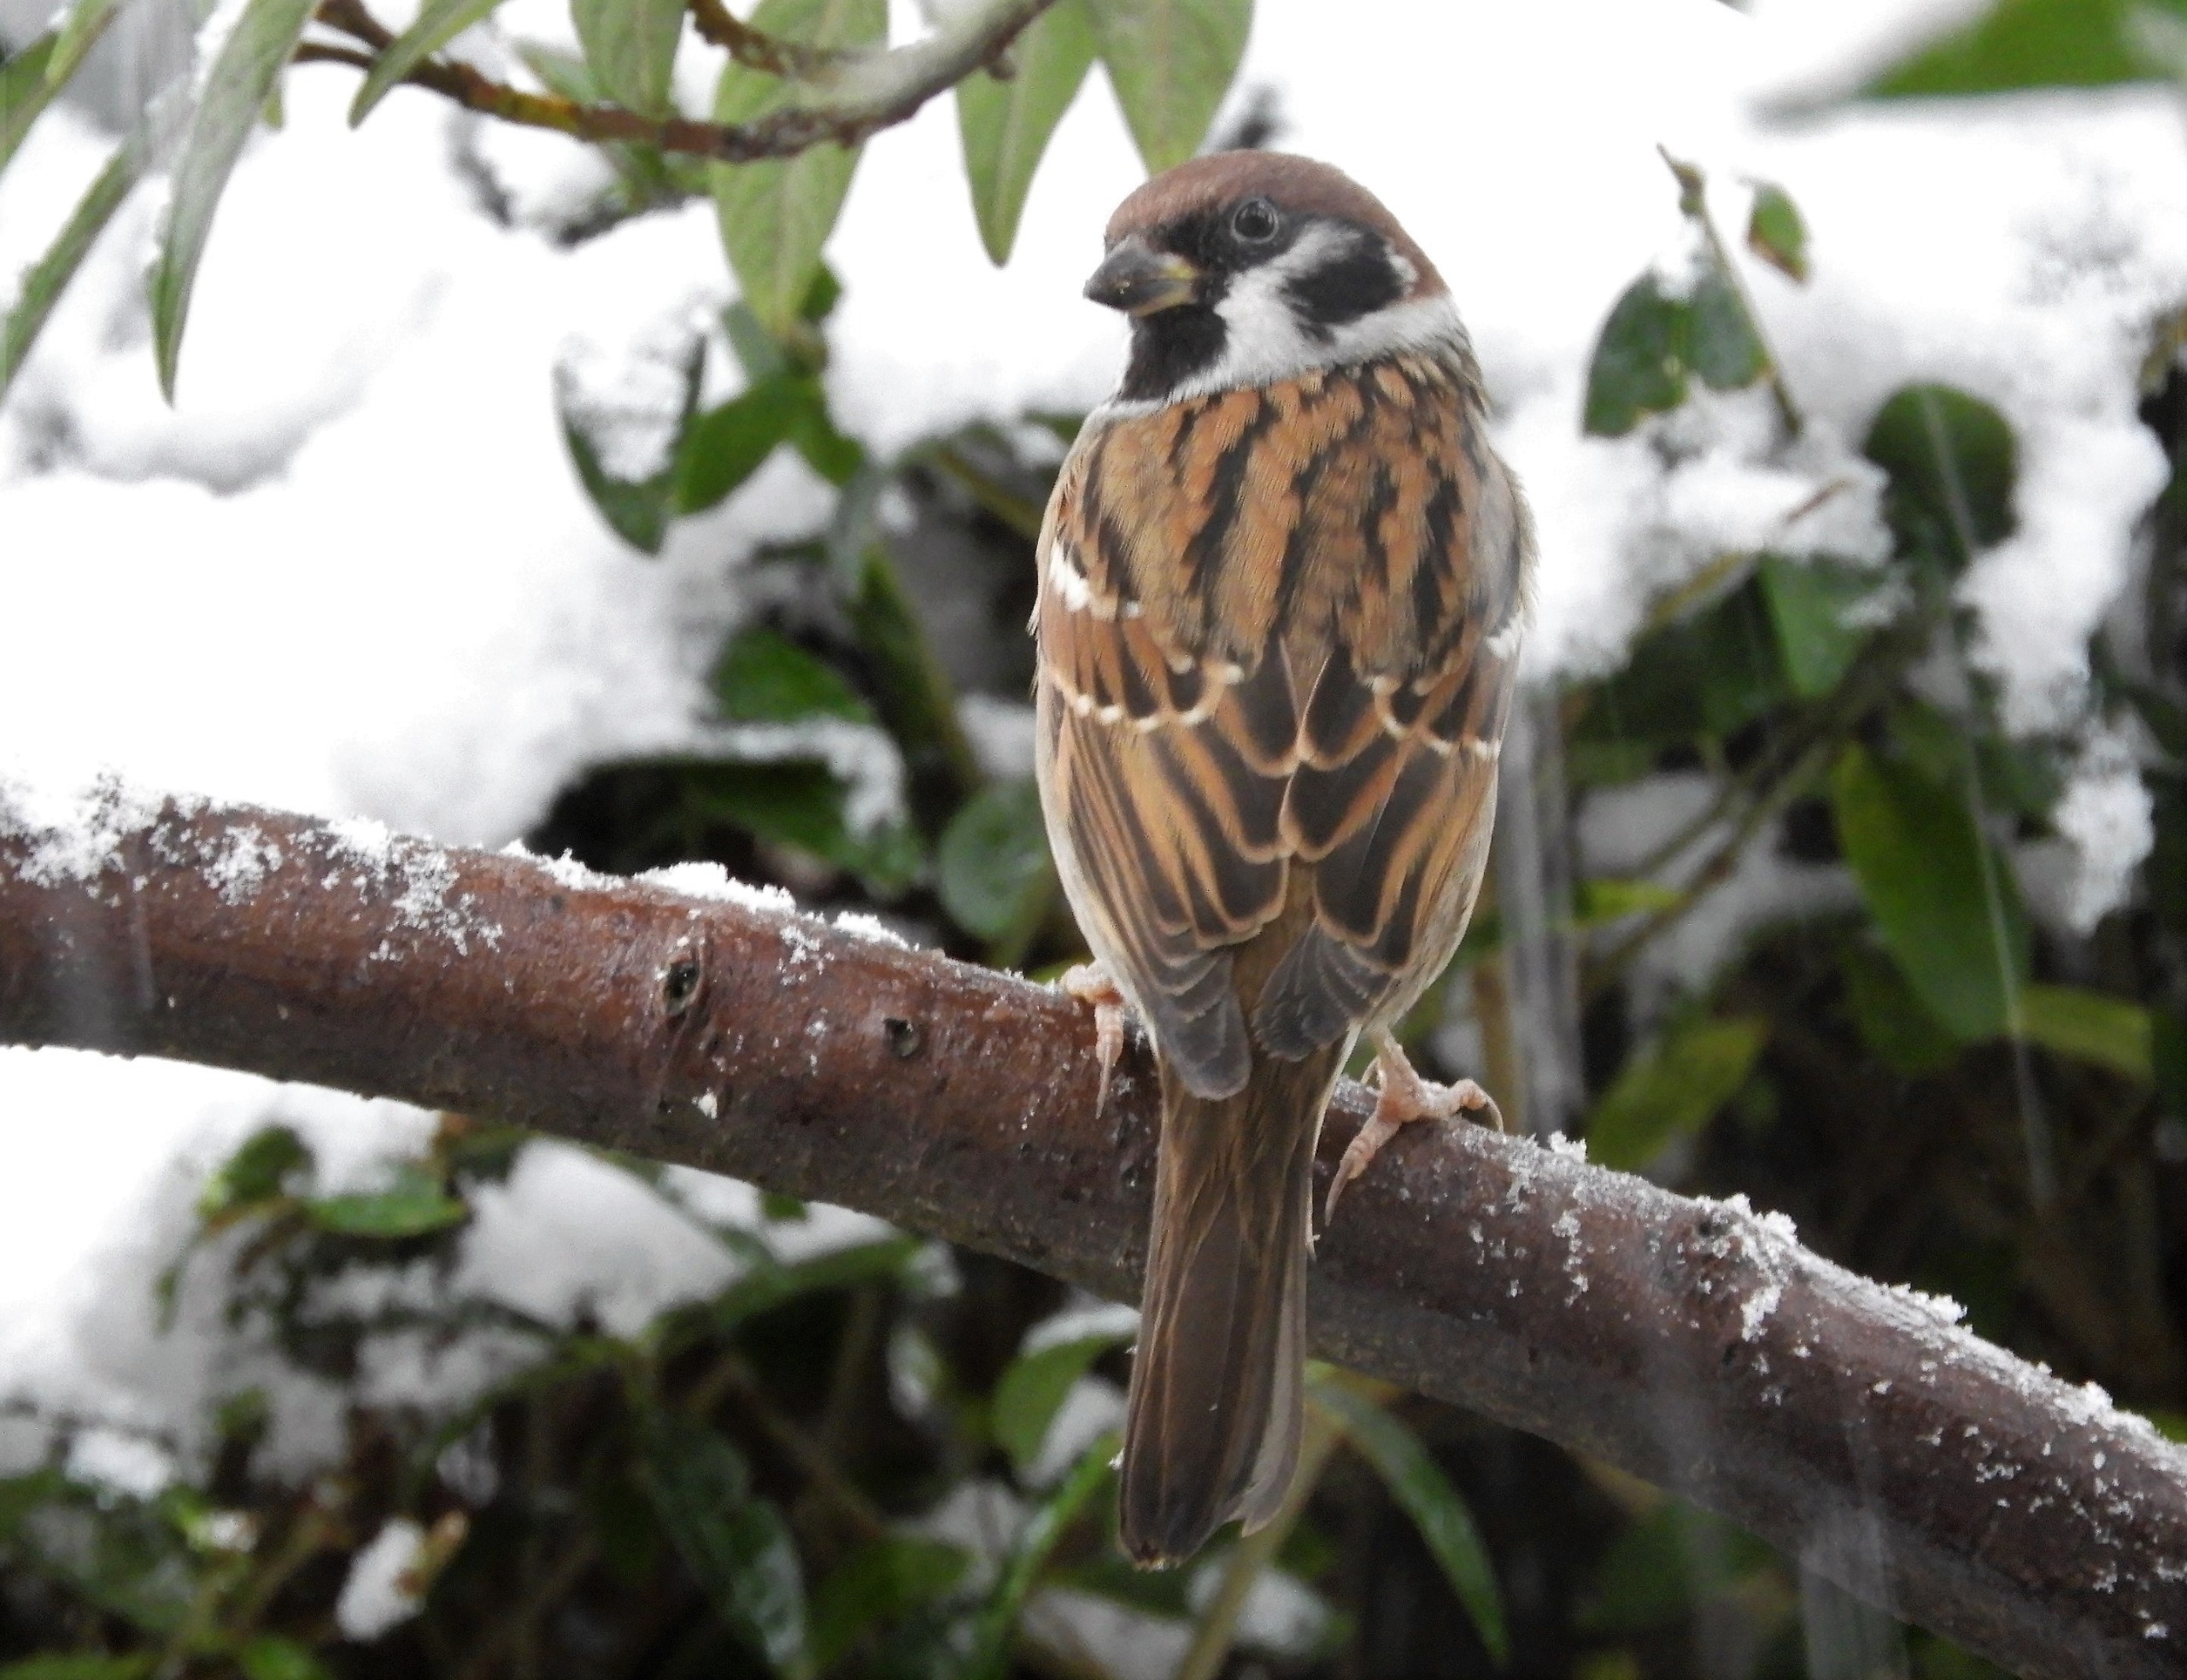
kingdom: Animalia
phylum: Chordata
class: Aves
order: Passeriformes
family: Passeridae
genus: Passer
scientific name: Passer montanus
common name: Skovspurv
